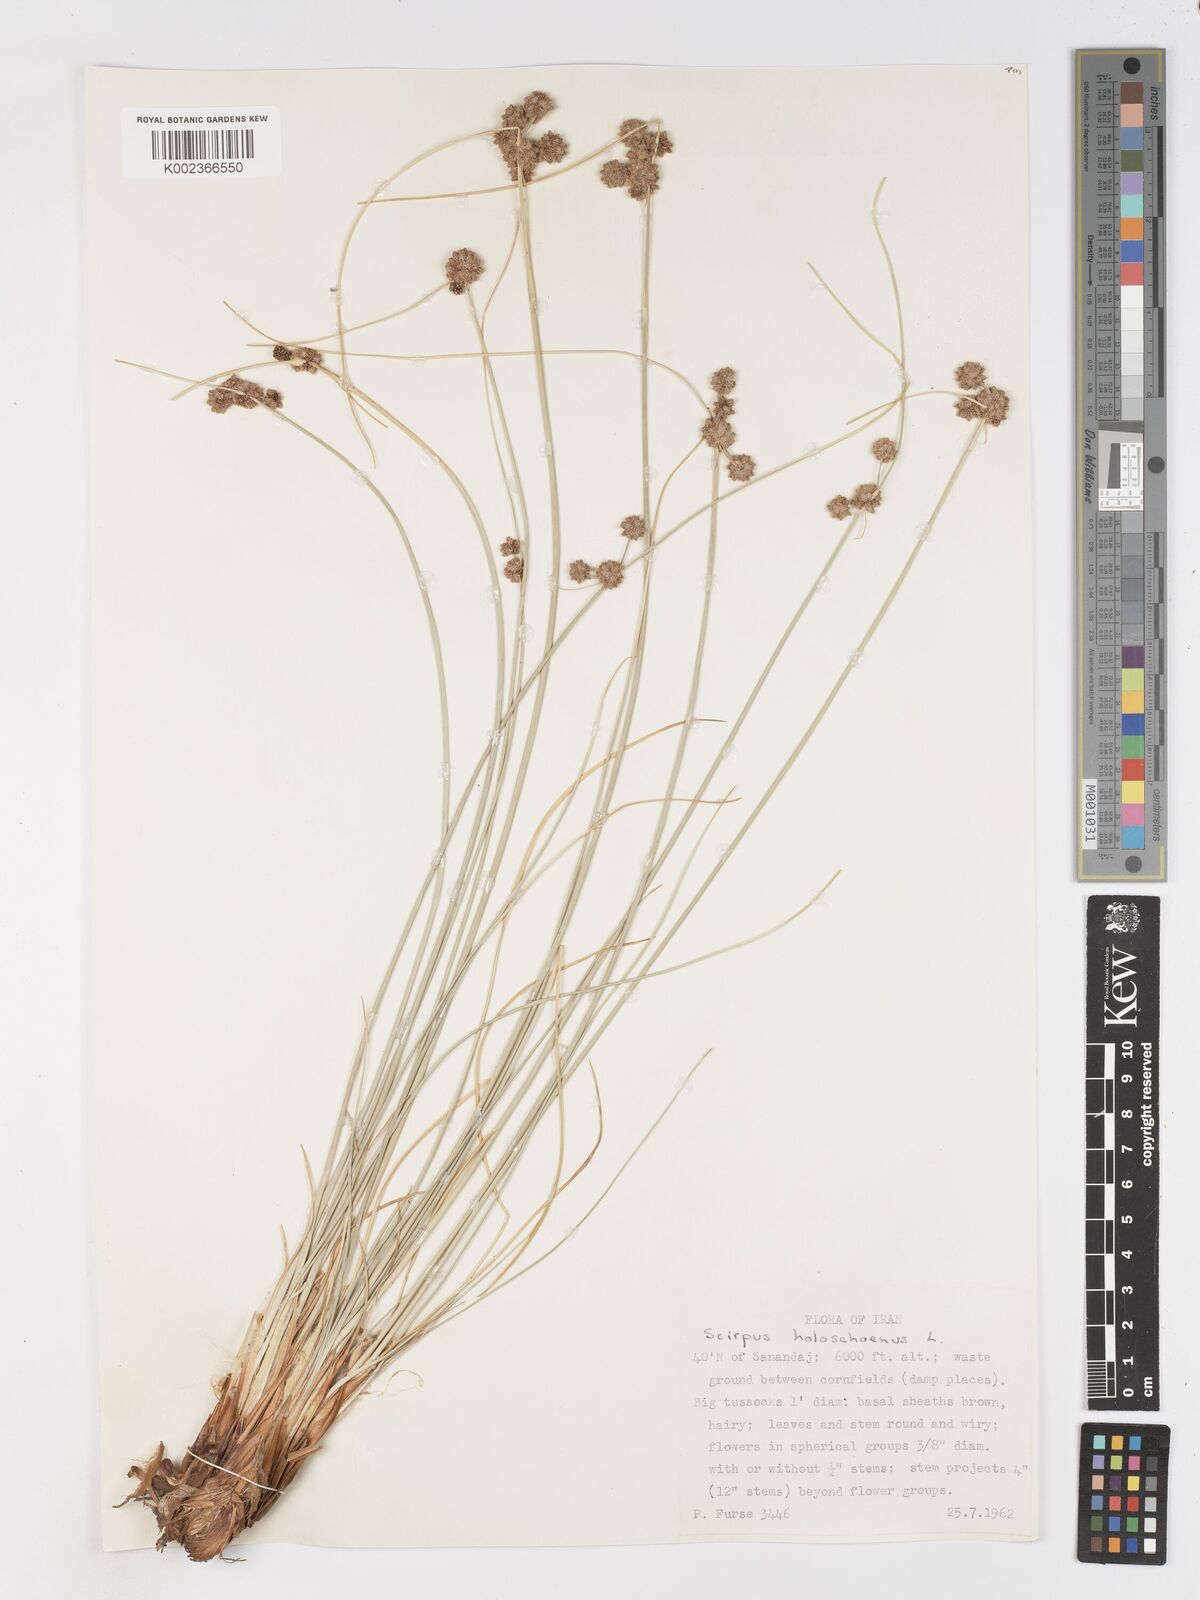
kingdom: Plantae
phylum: Tracheophyta
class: Liliopsida
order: Poales
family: Cyperaceae
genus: Scirpoides
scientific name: Scirpoides holoschoenus
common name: Round-headed club-rush
